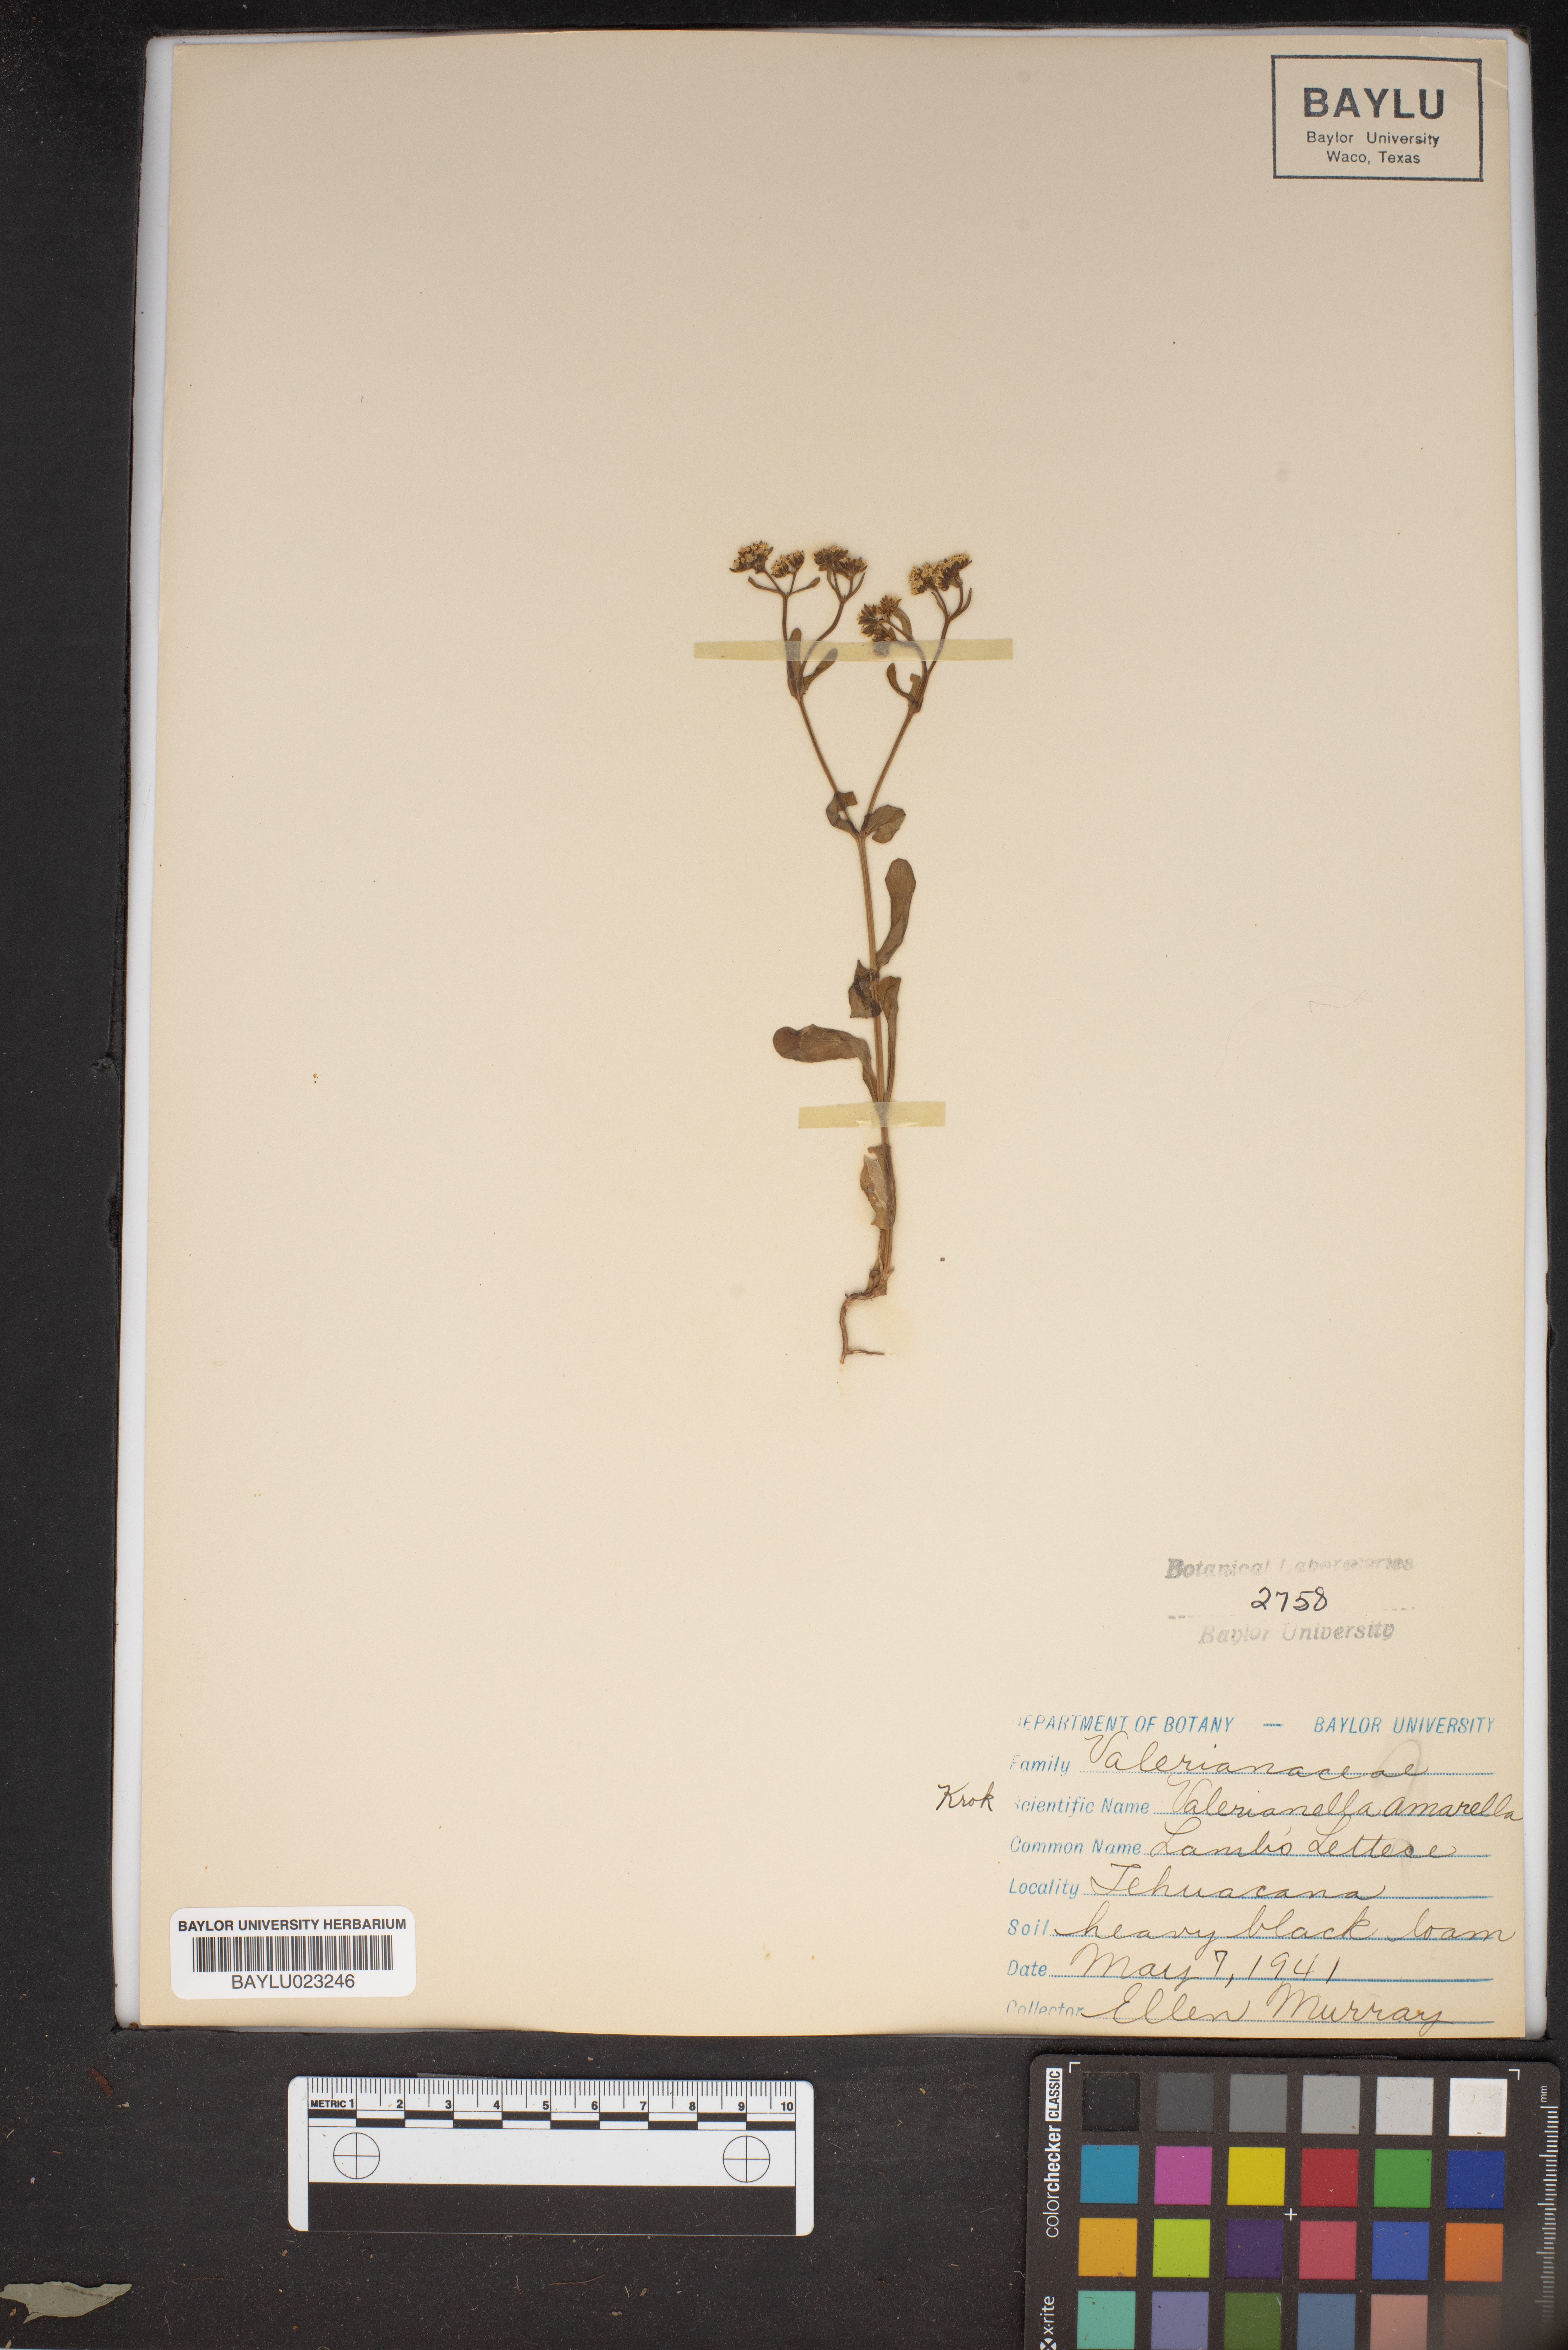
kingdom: Plantae
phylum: Tracheophyta
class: Magnoliopsida
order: Dipsacales
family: Caprifoliaceae
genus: Valerianella
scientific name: Valerianella amarella
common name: Hariy cornsalad
